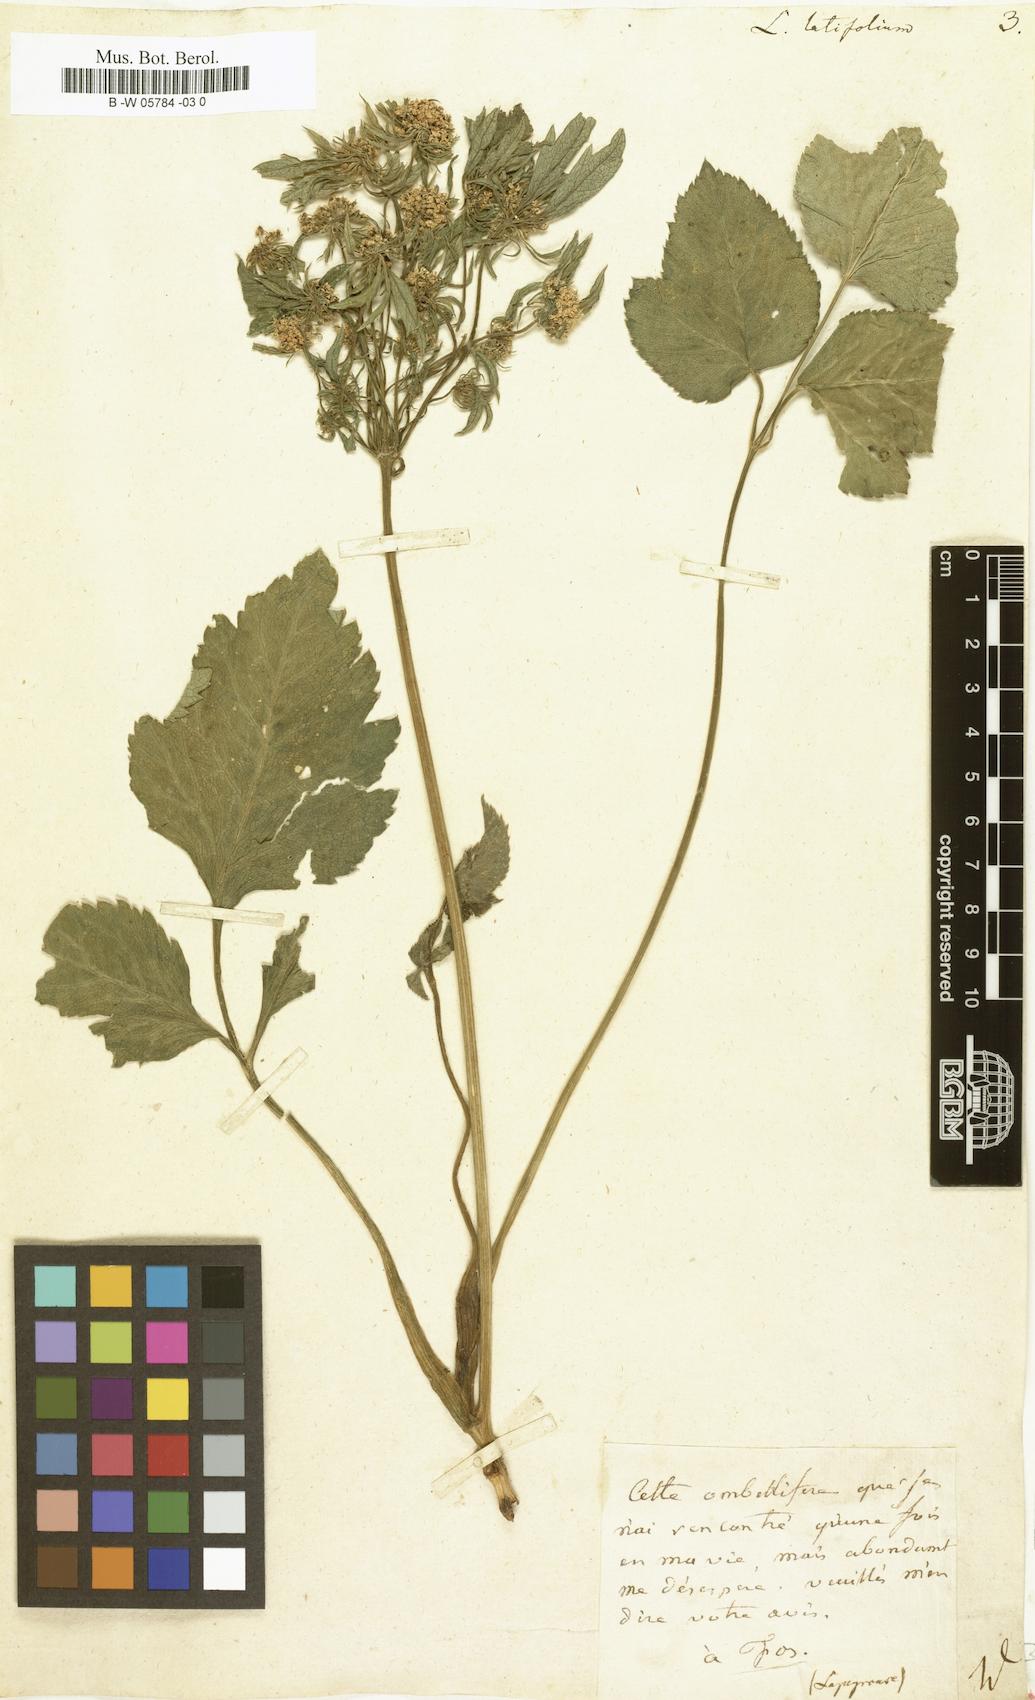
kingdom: Plantae
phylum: Tracheophyta
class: Magnoliopsida
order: Apiales
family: Apiaceae
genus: Laserpitium
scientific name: Laserpitium latifolium
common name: Broadleaf sermountain
